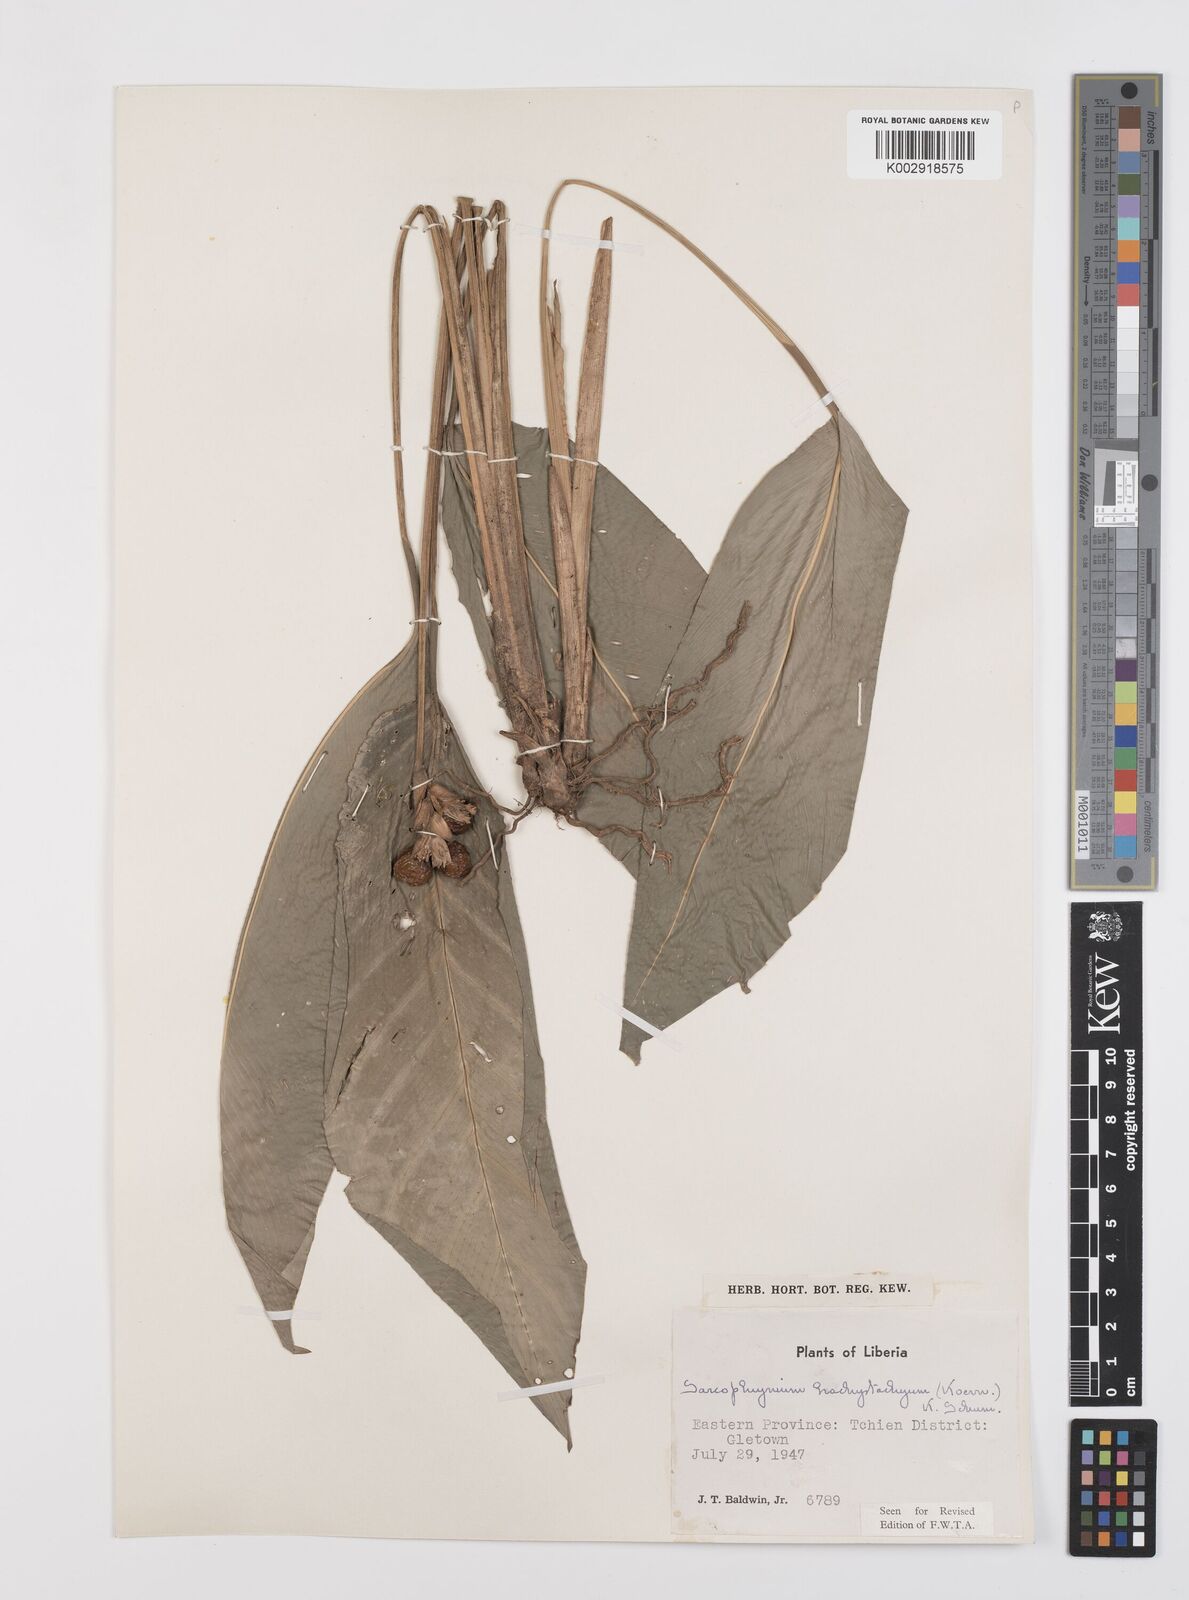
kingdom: Plantae
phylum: Tracheophyta
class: Liliopsida
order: Zingiberales
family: Marantaceae
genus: Sarcophrynium
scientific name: Sarcophrynium brachystachyum
